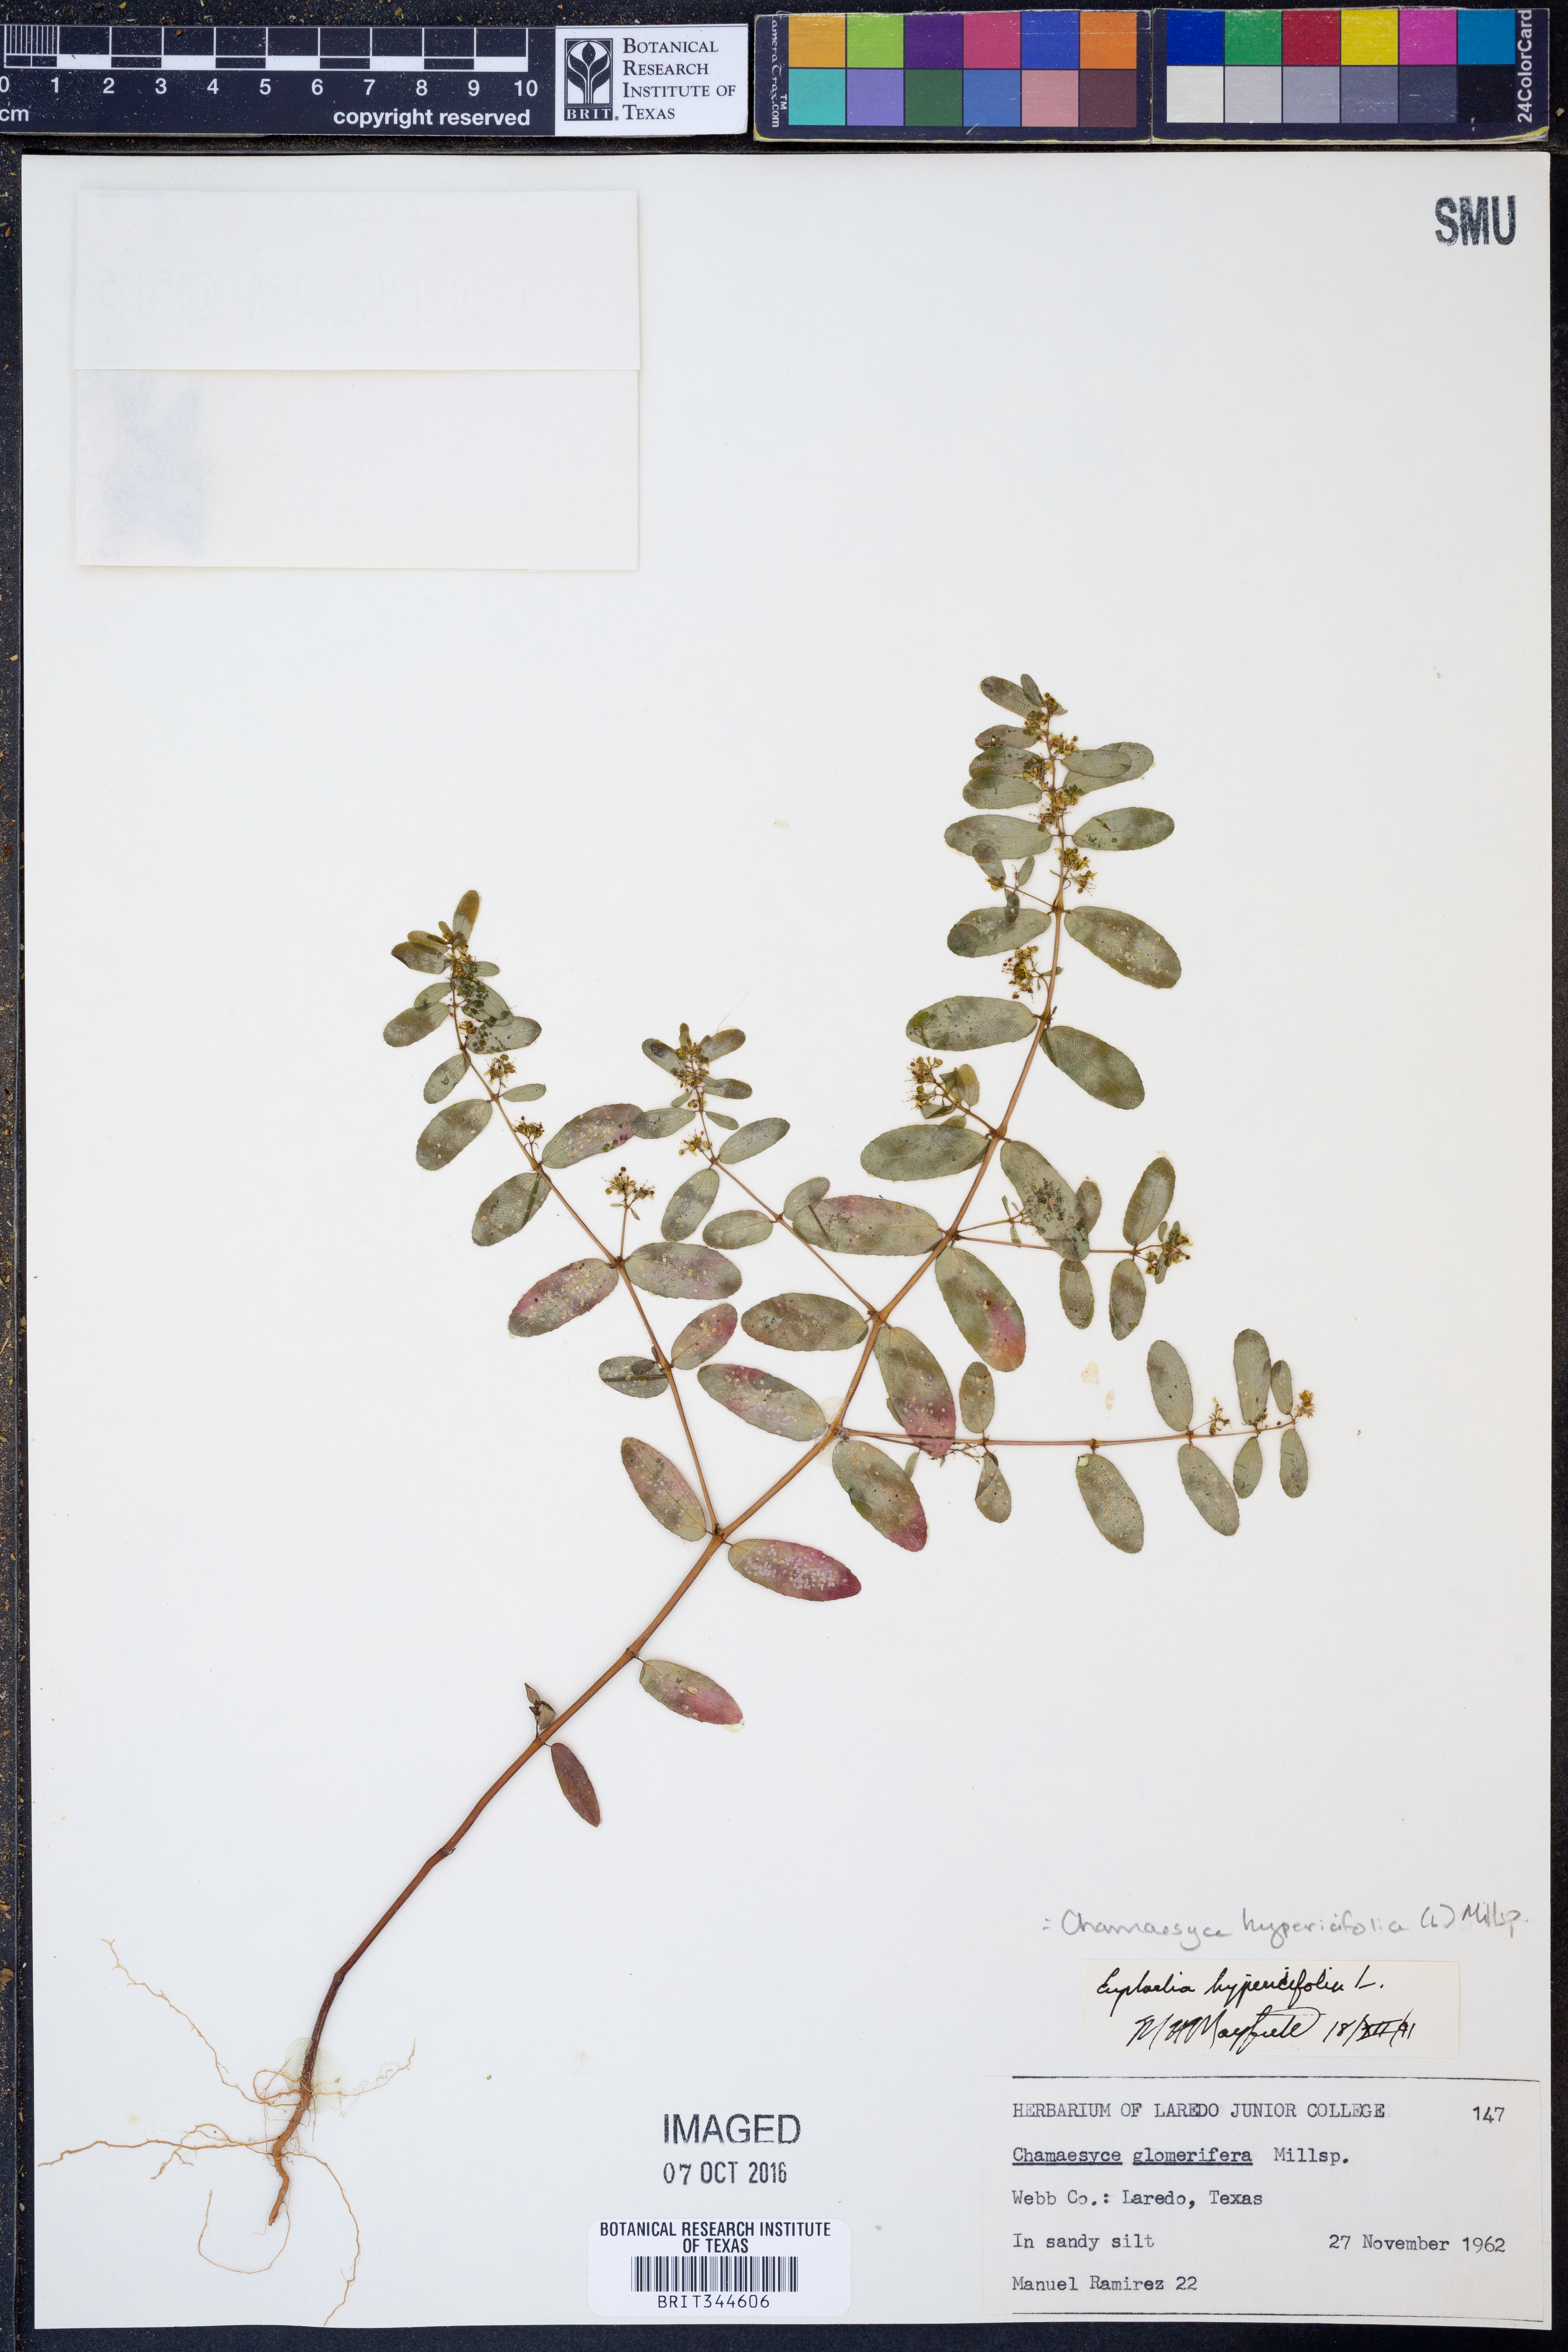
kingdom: Plantae
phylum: Tracheophyta
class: Magnoliopsida
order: Malpighiales
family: Euphorbiaceae
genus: Euphorbia
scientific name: Euphorbia hypericifolia
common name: Graceful sandmat
